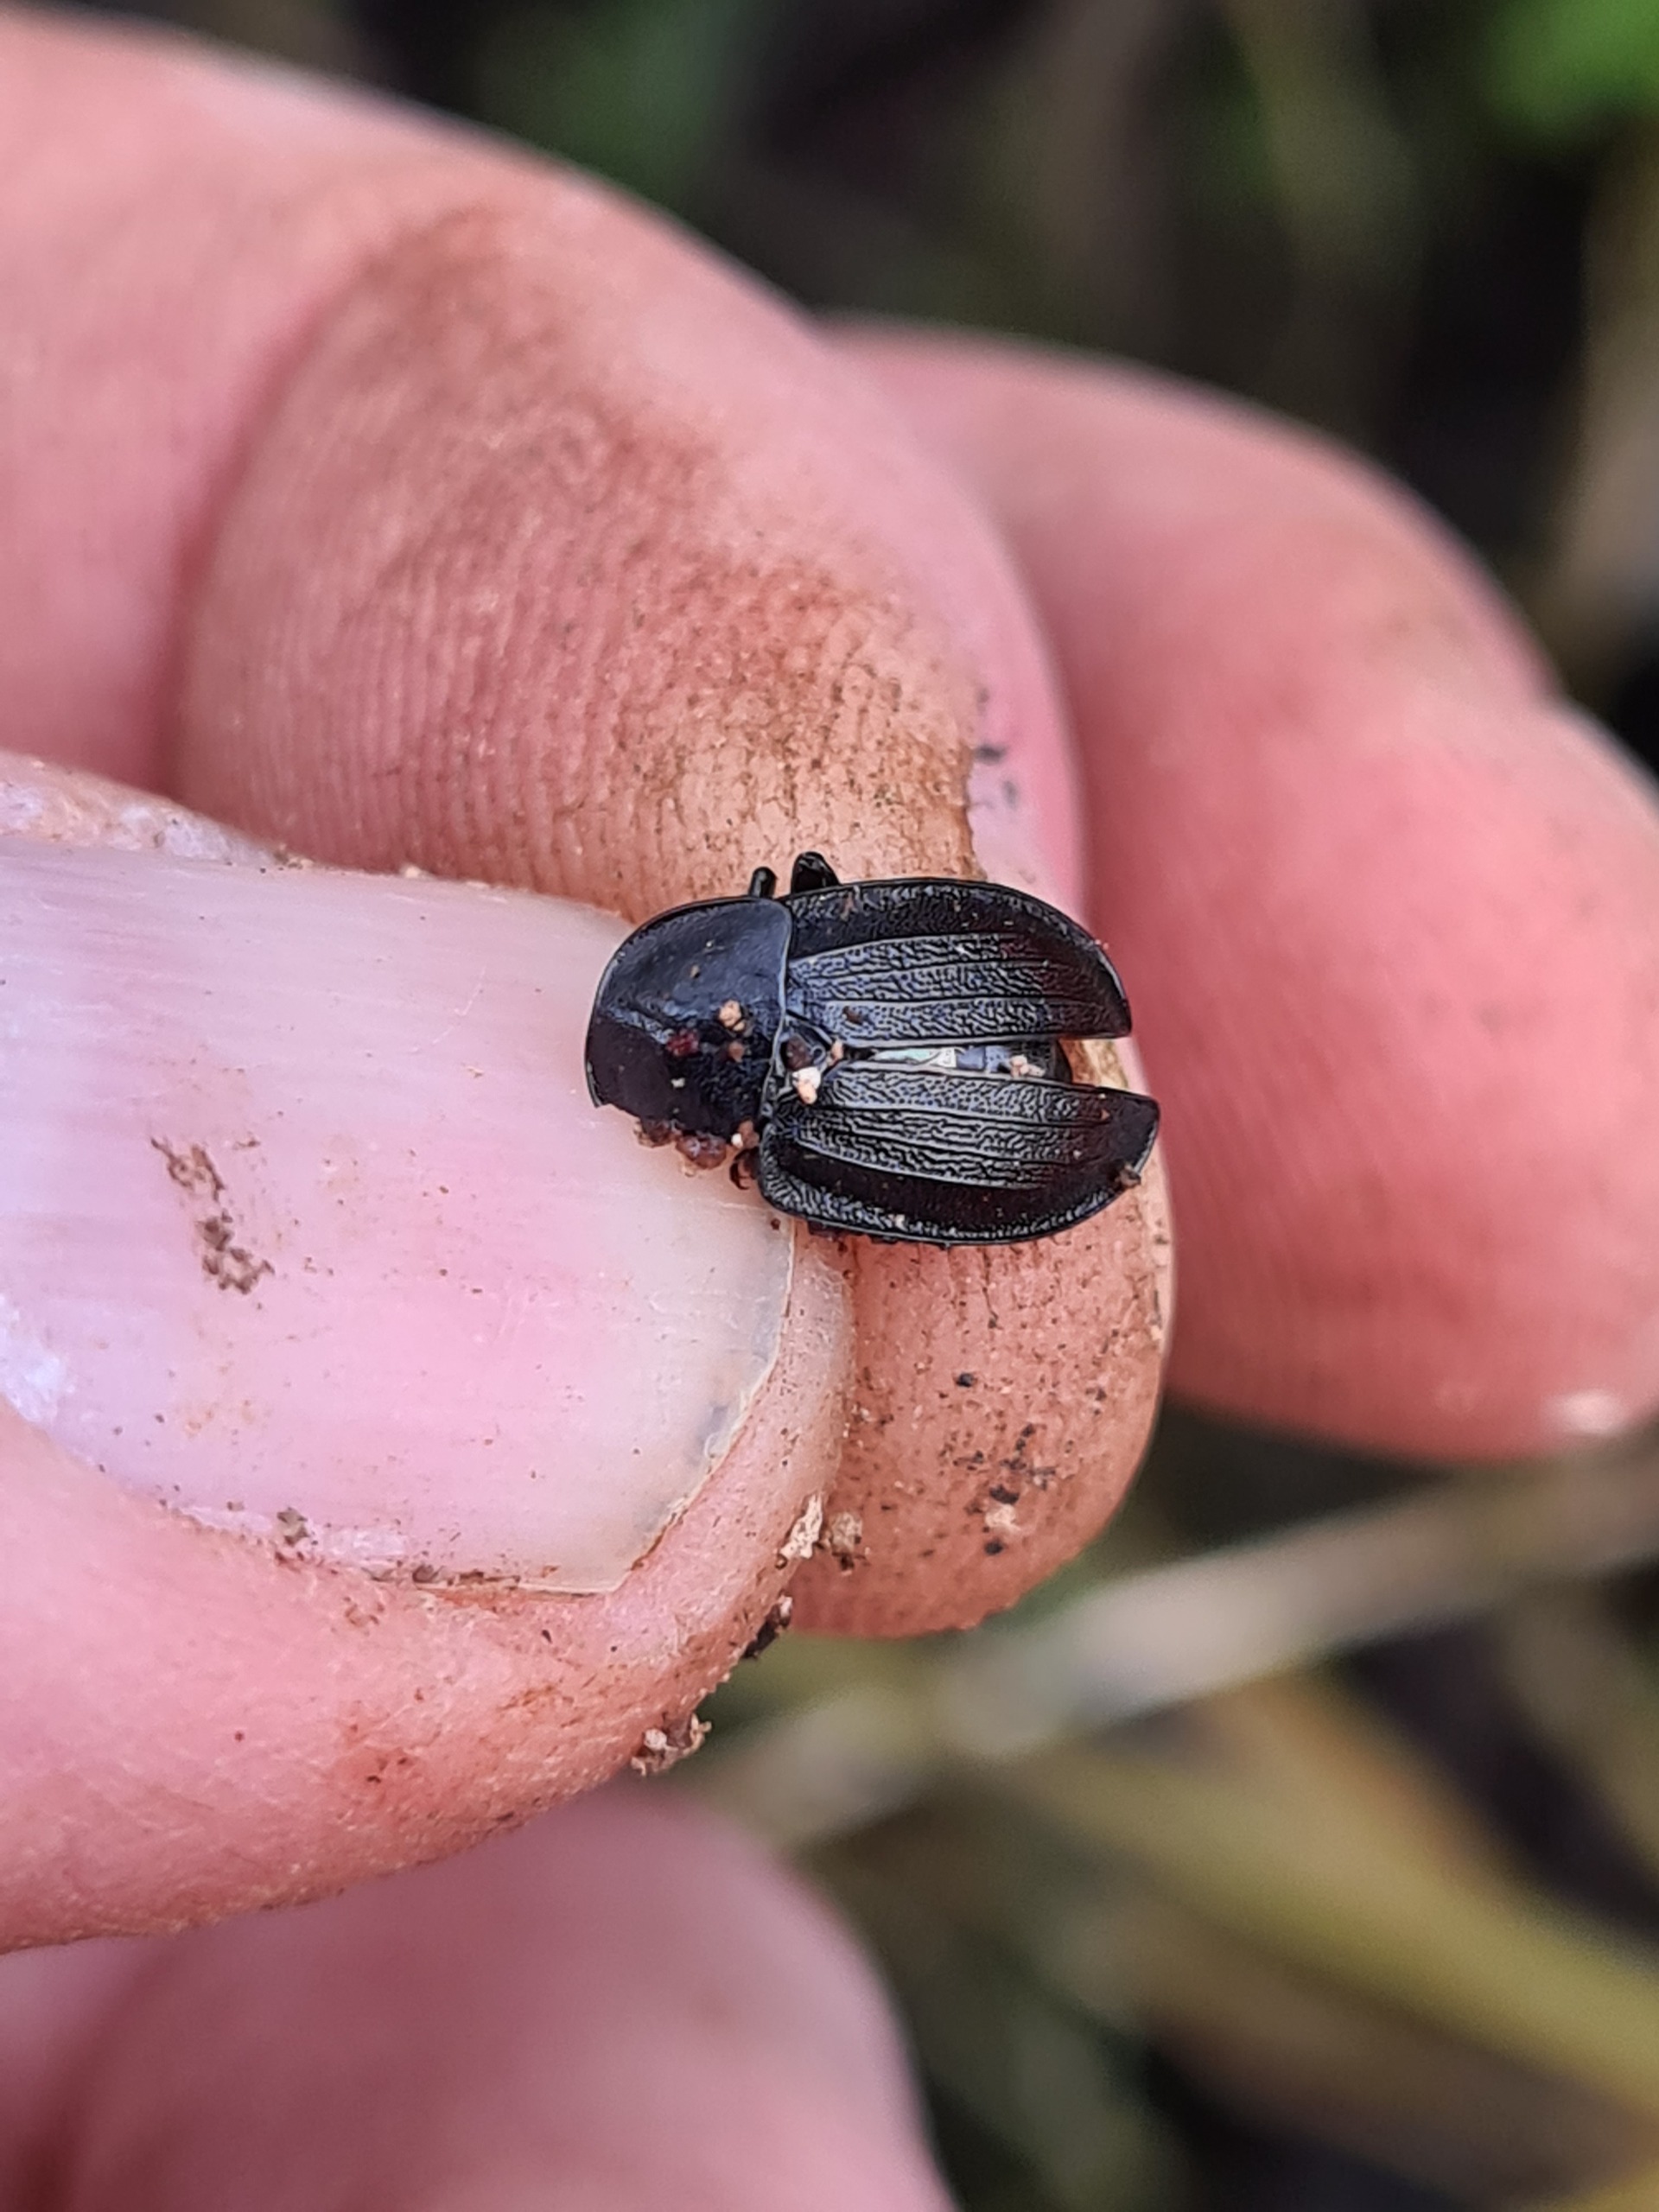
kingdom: Animalia
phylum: Arthropoda
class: Insecta
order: Coleoptera
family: Staphylinidae
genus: Silpha
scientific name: Silpha atrata
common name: Snegleådselbille
